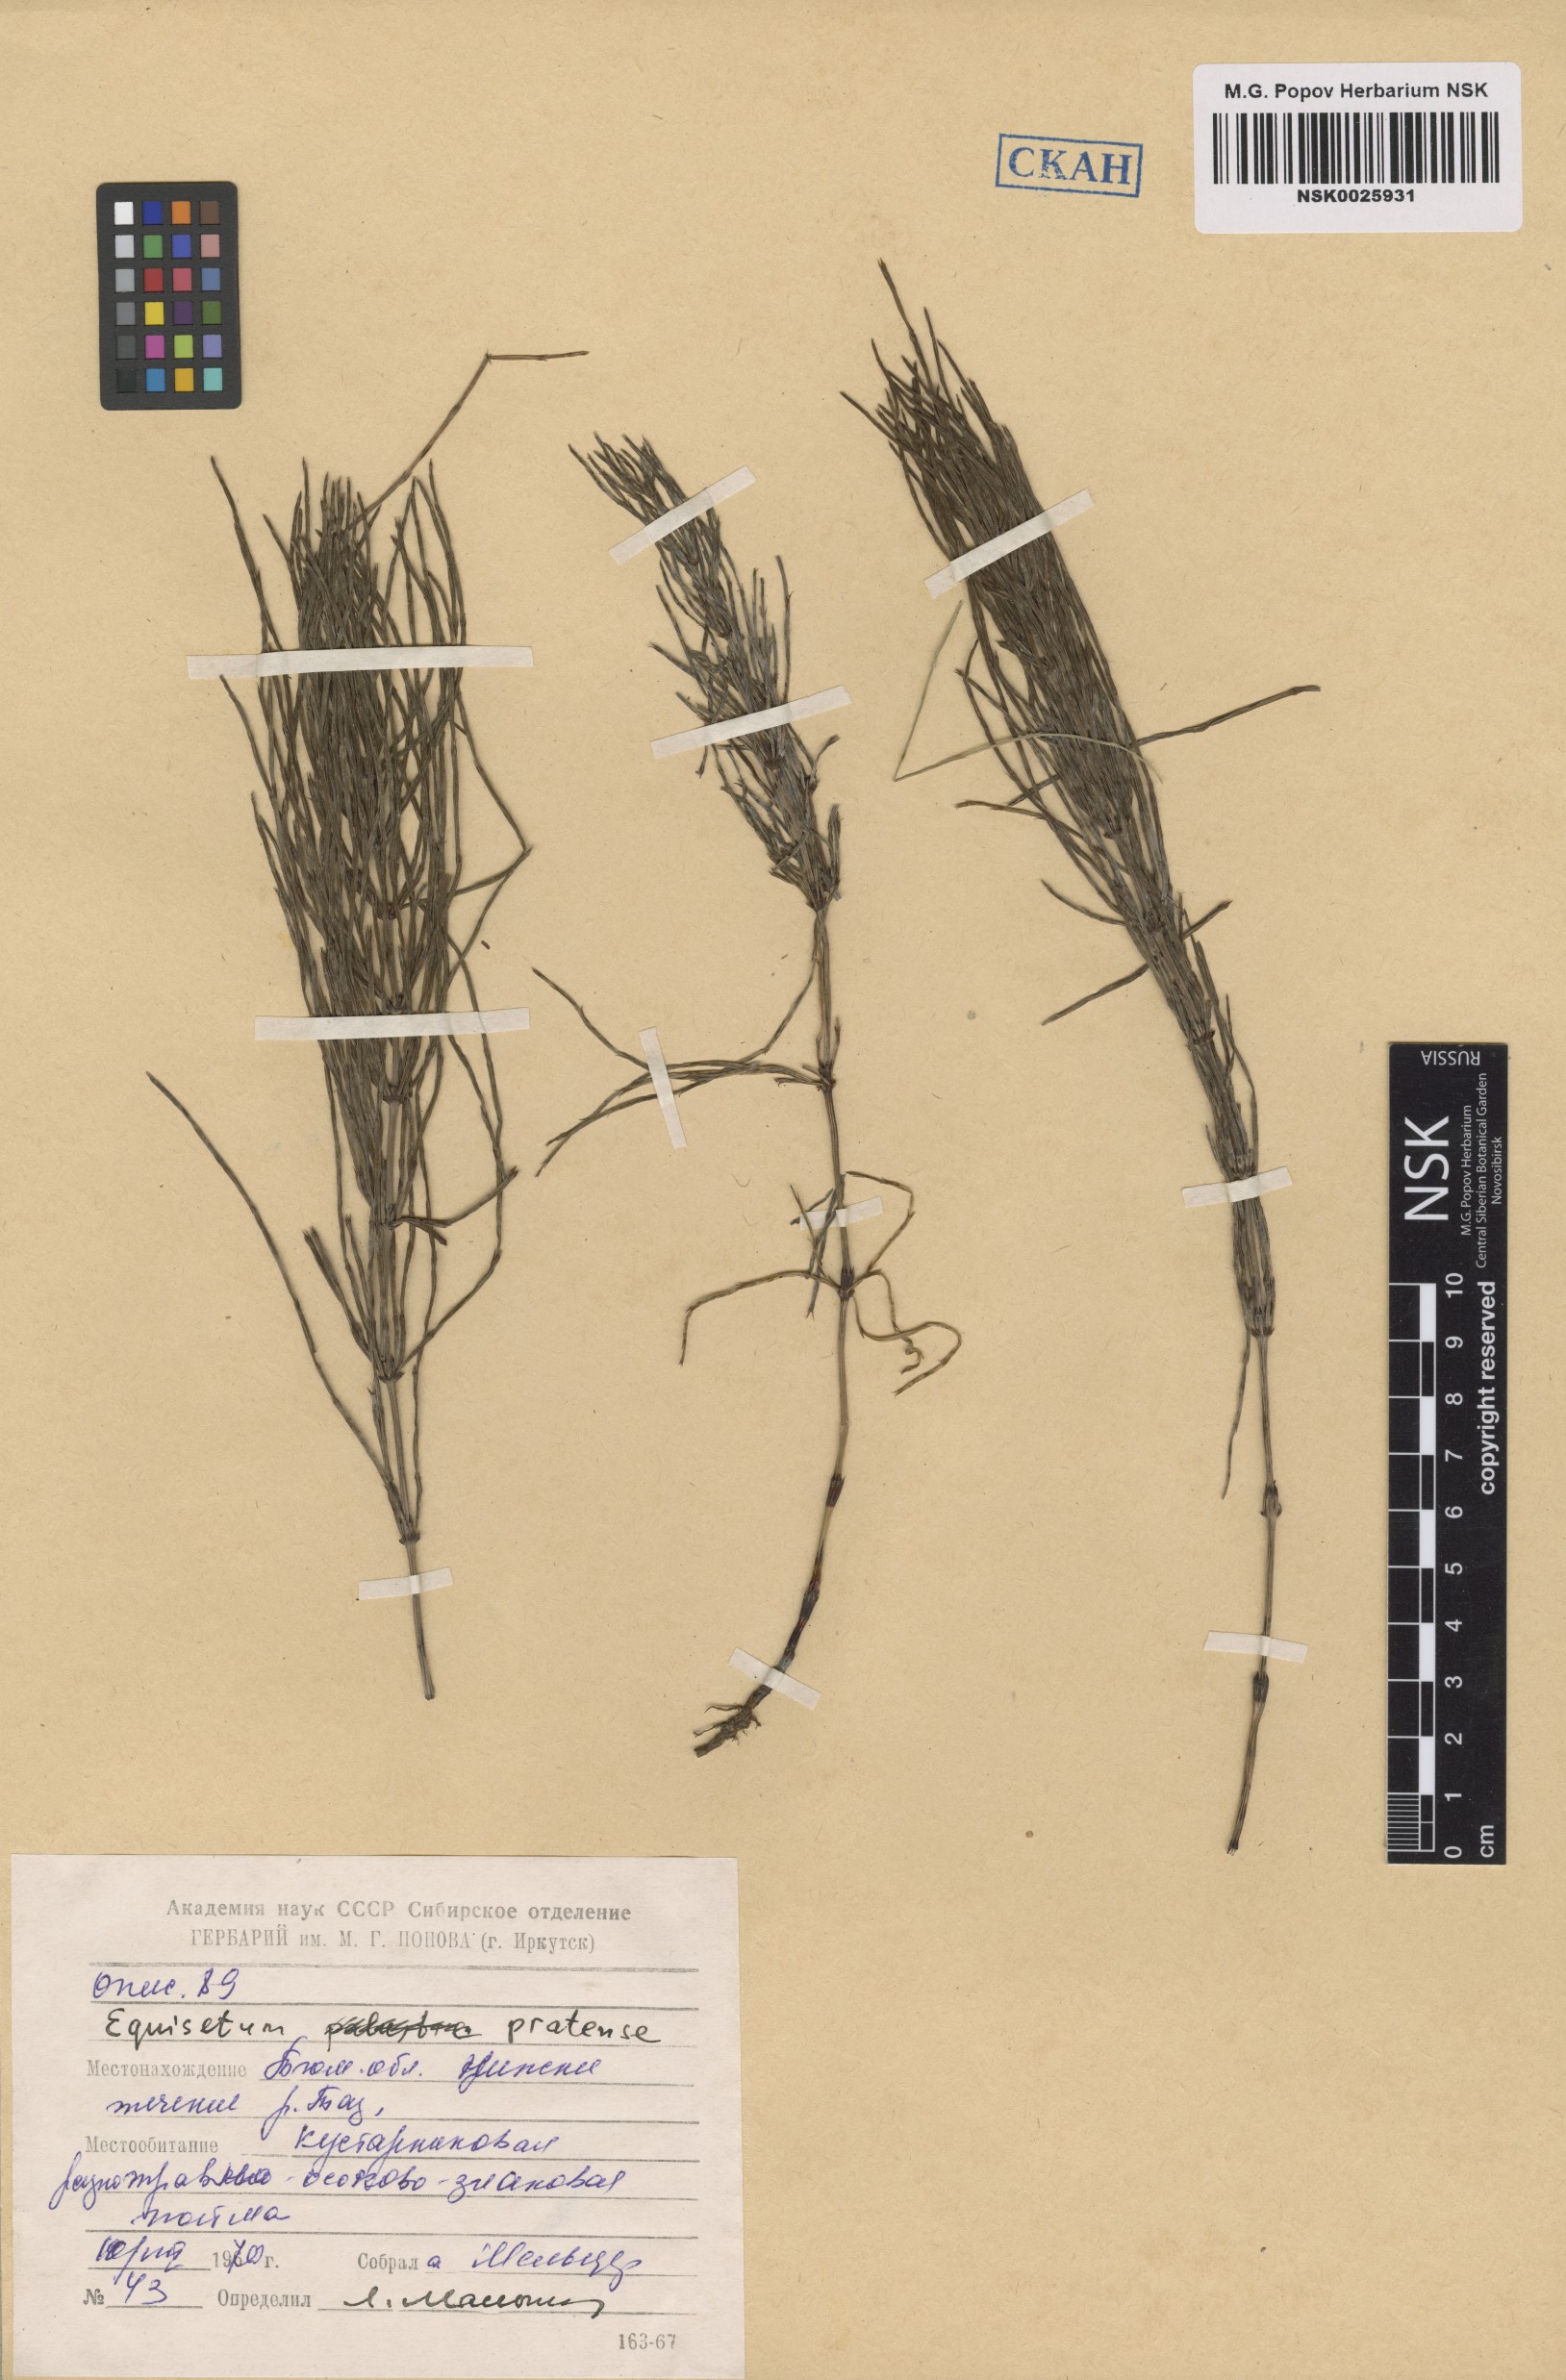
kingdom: Plantae
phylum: Tracheophyta
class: Polypodiopsida
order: Equisetales
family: Equisetaceae
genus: Equisetum
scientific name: Equisetum pratense
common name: Meadow horsetail
